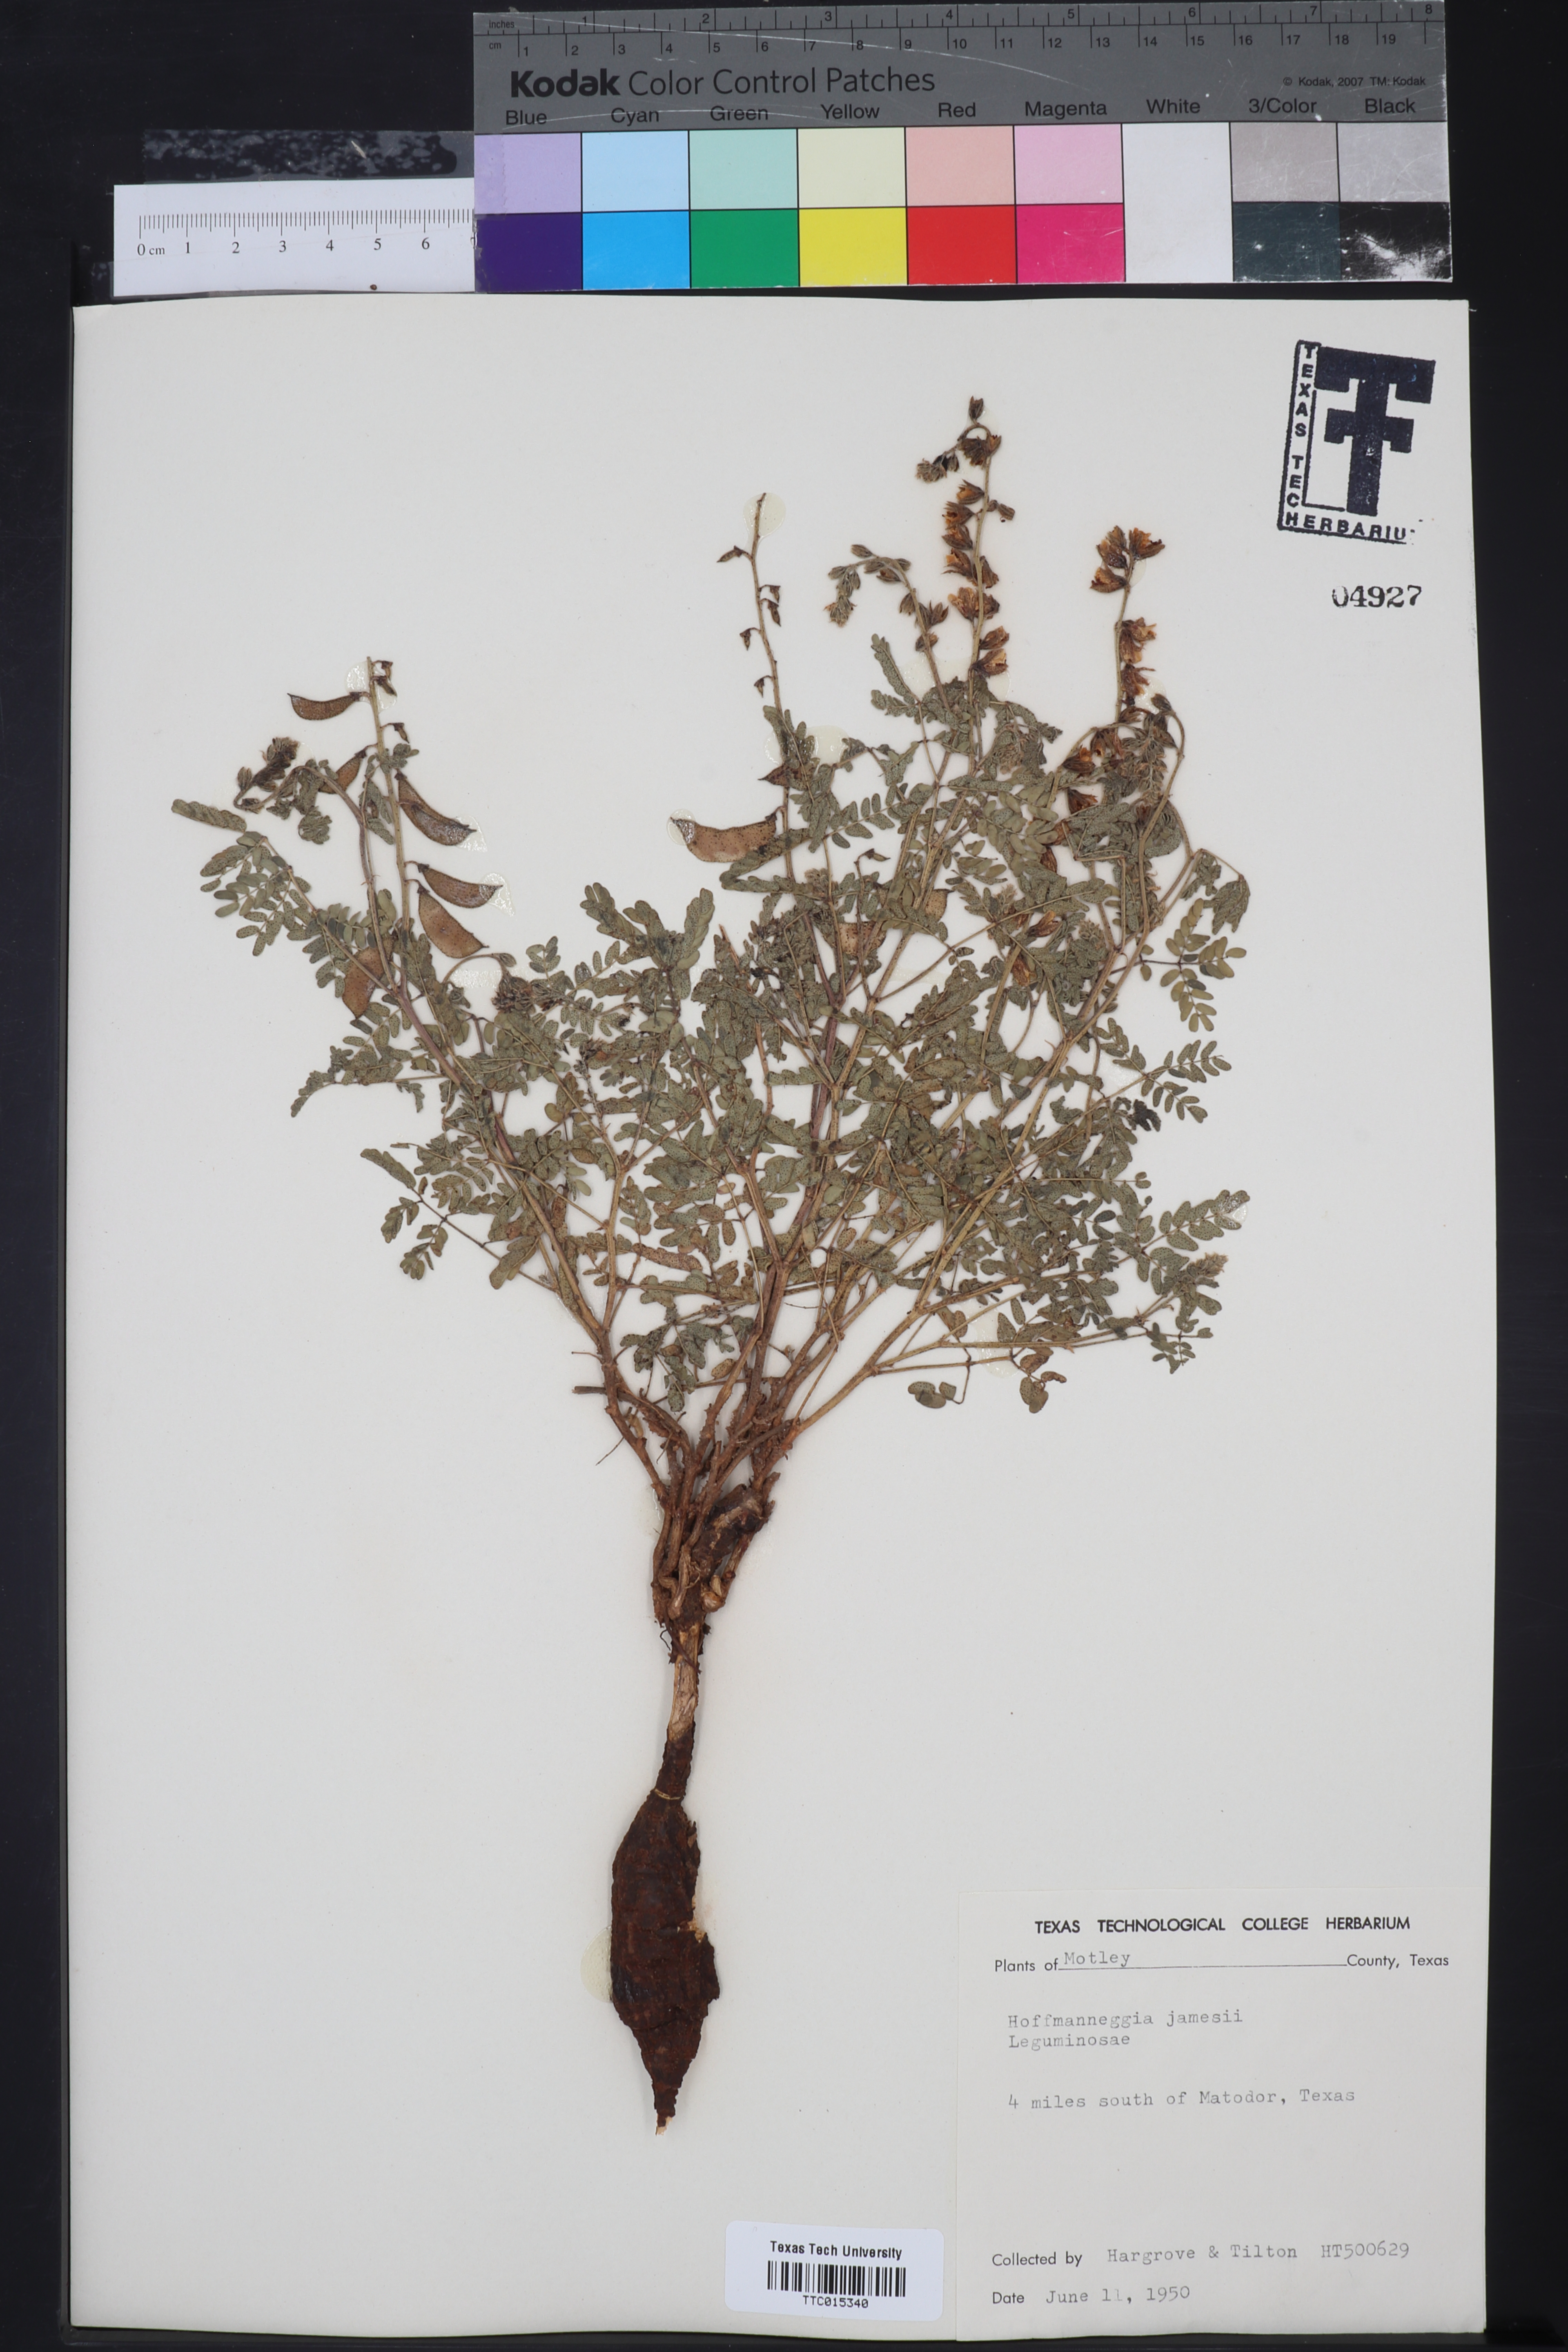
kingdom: Plantae
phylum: Tracheophyta
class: Magnoliopsida
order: Fabales
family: Fabaceae
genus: Pomaria
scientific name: Pomaria jamesii
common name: James' caesalpinia
